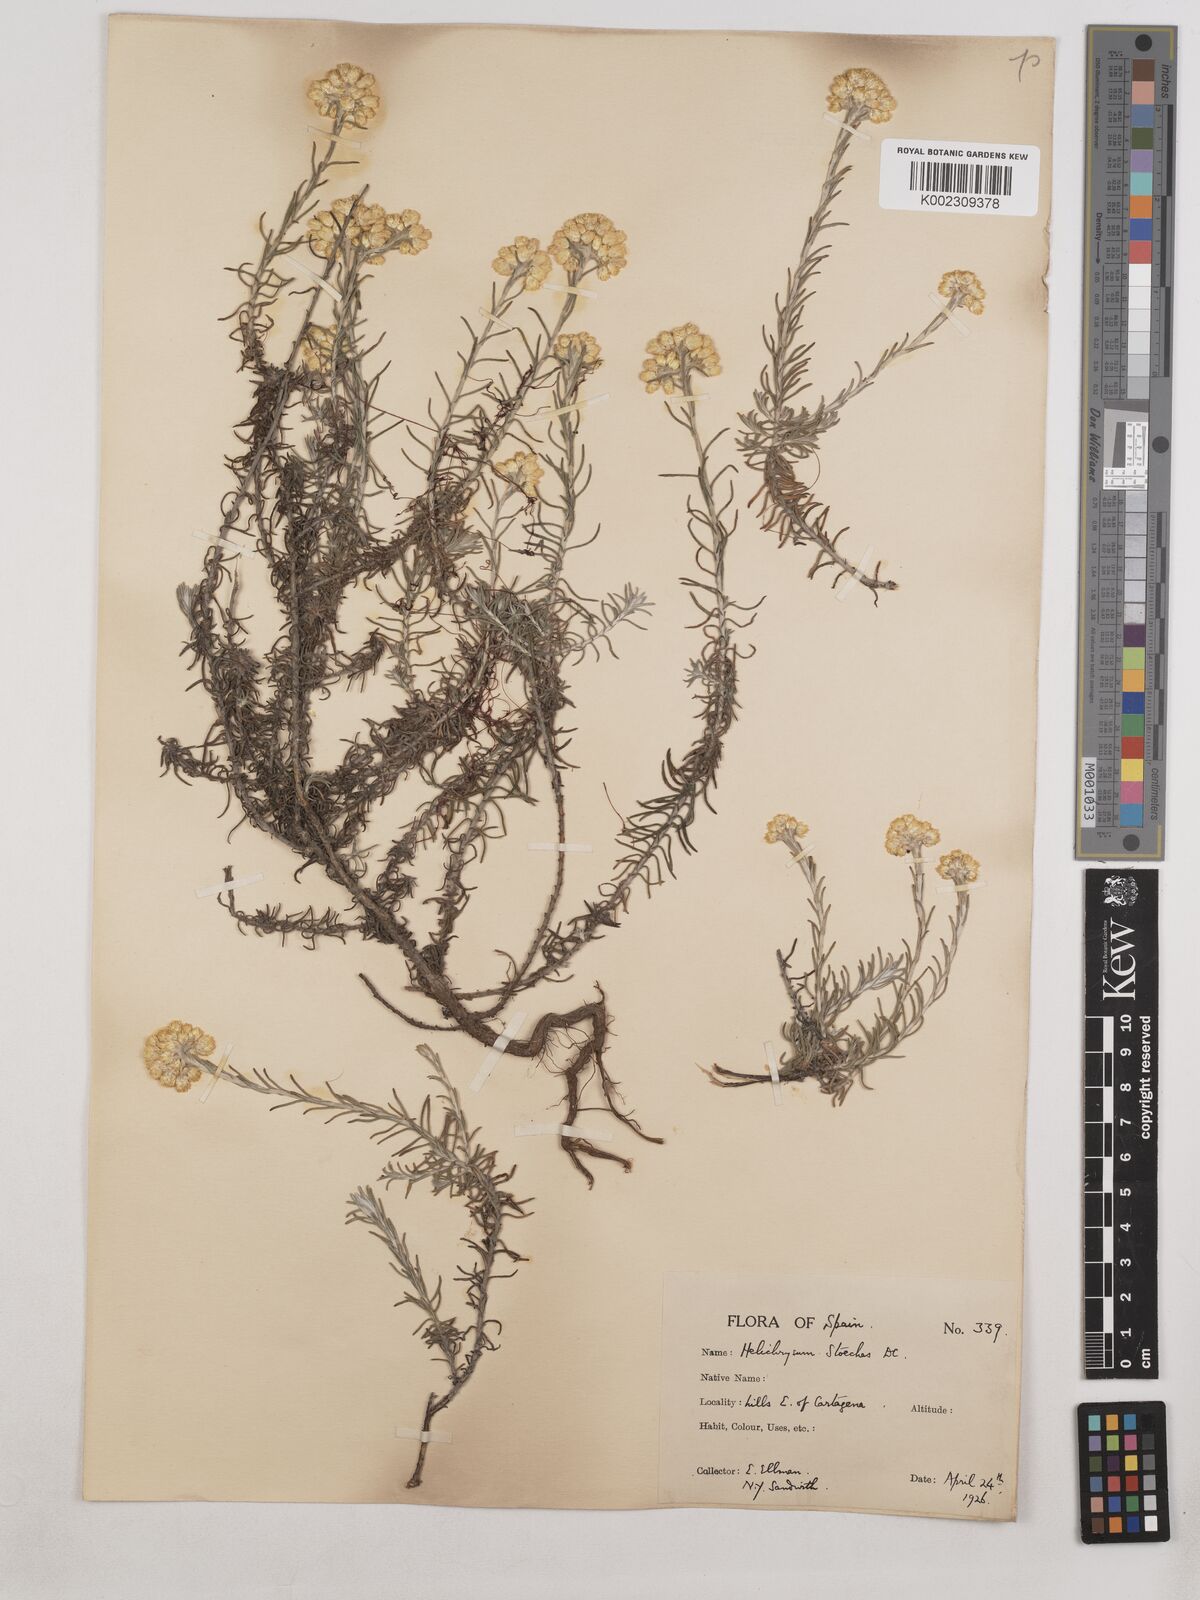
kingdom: Plantae
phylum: Tracheophyta
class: Magnoliopsida
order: Asterales
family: Asteraceae
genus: Helichrysum
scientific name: Helichrysum
